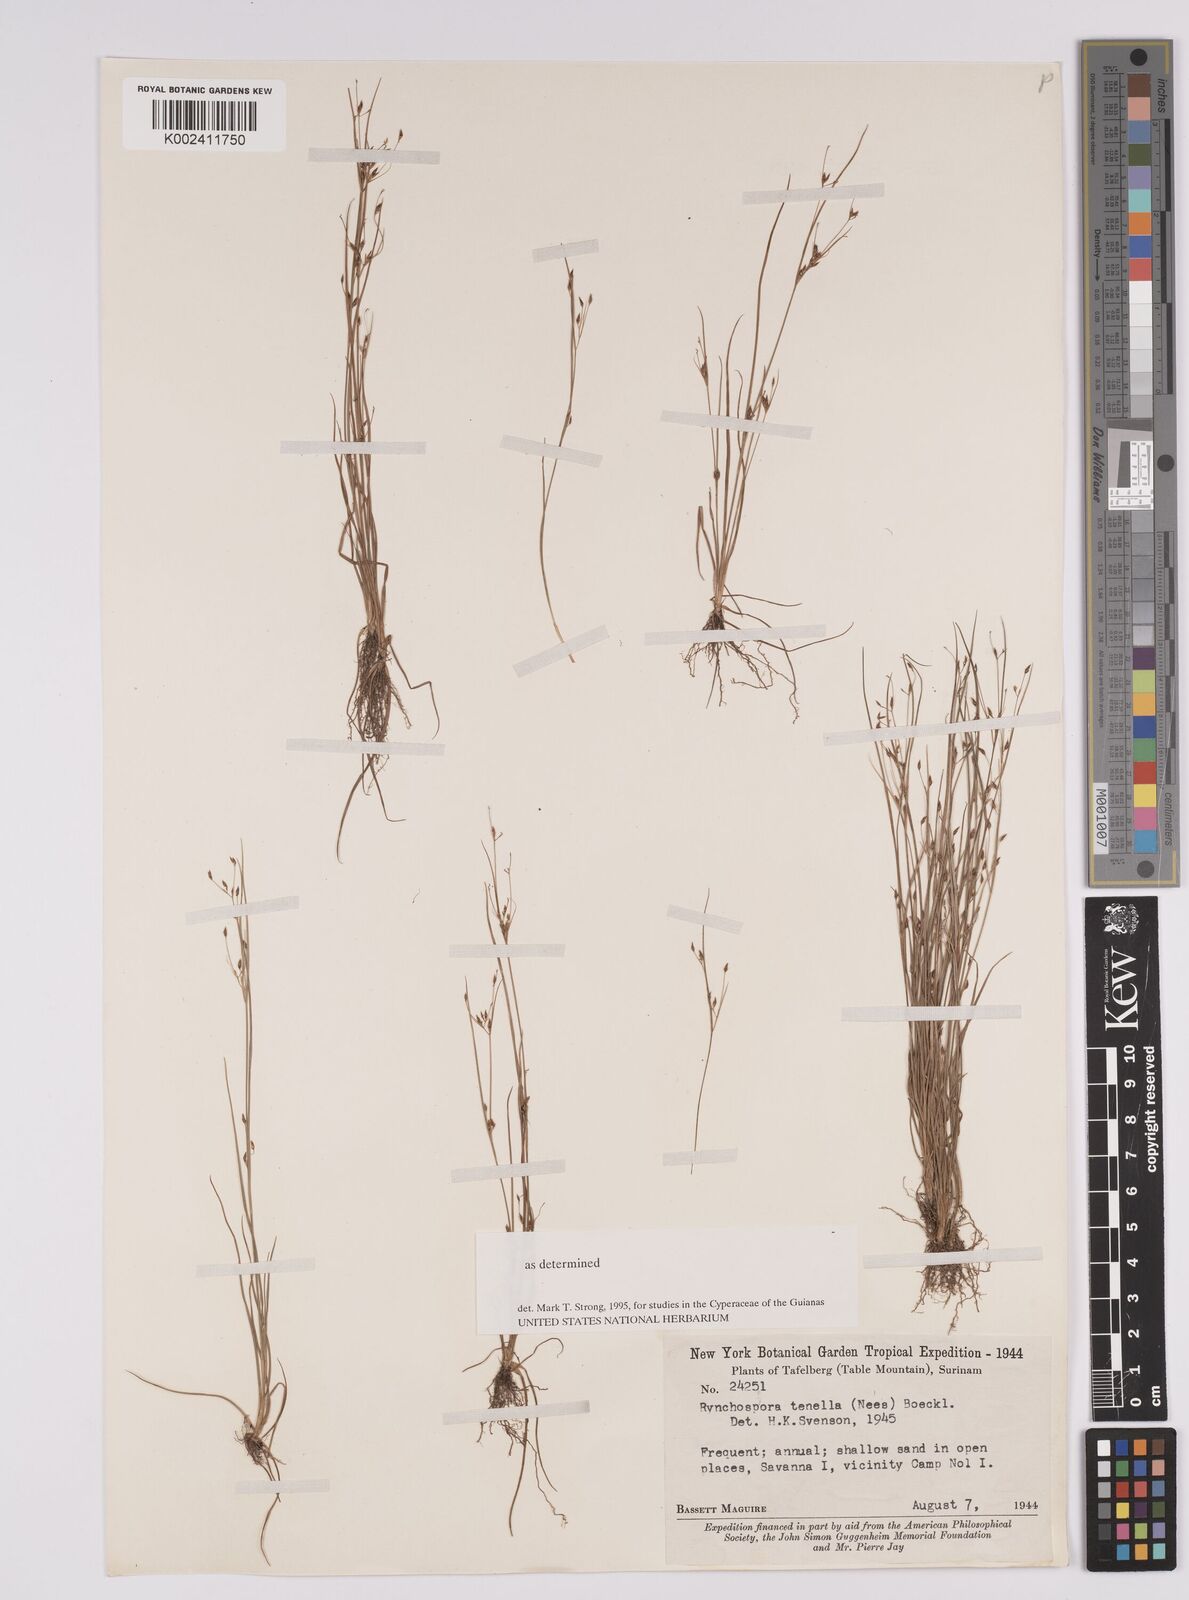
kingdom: Plantae
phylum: Tracheophyta
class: Liliopsida
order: Poales
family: Cyperaceae
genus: Rhynchospora
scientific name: Rhynchospora tenella
